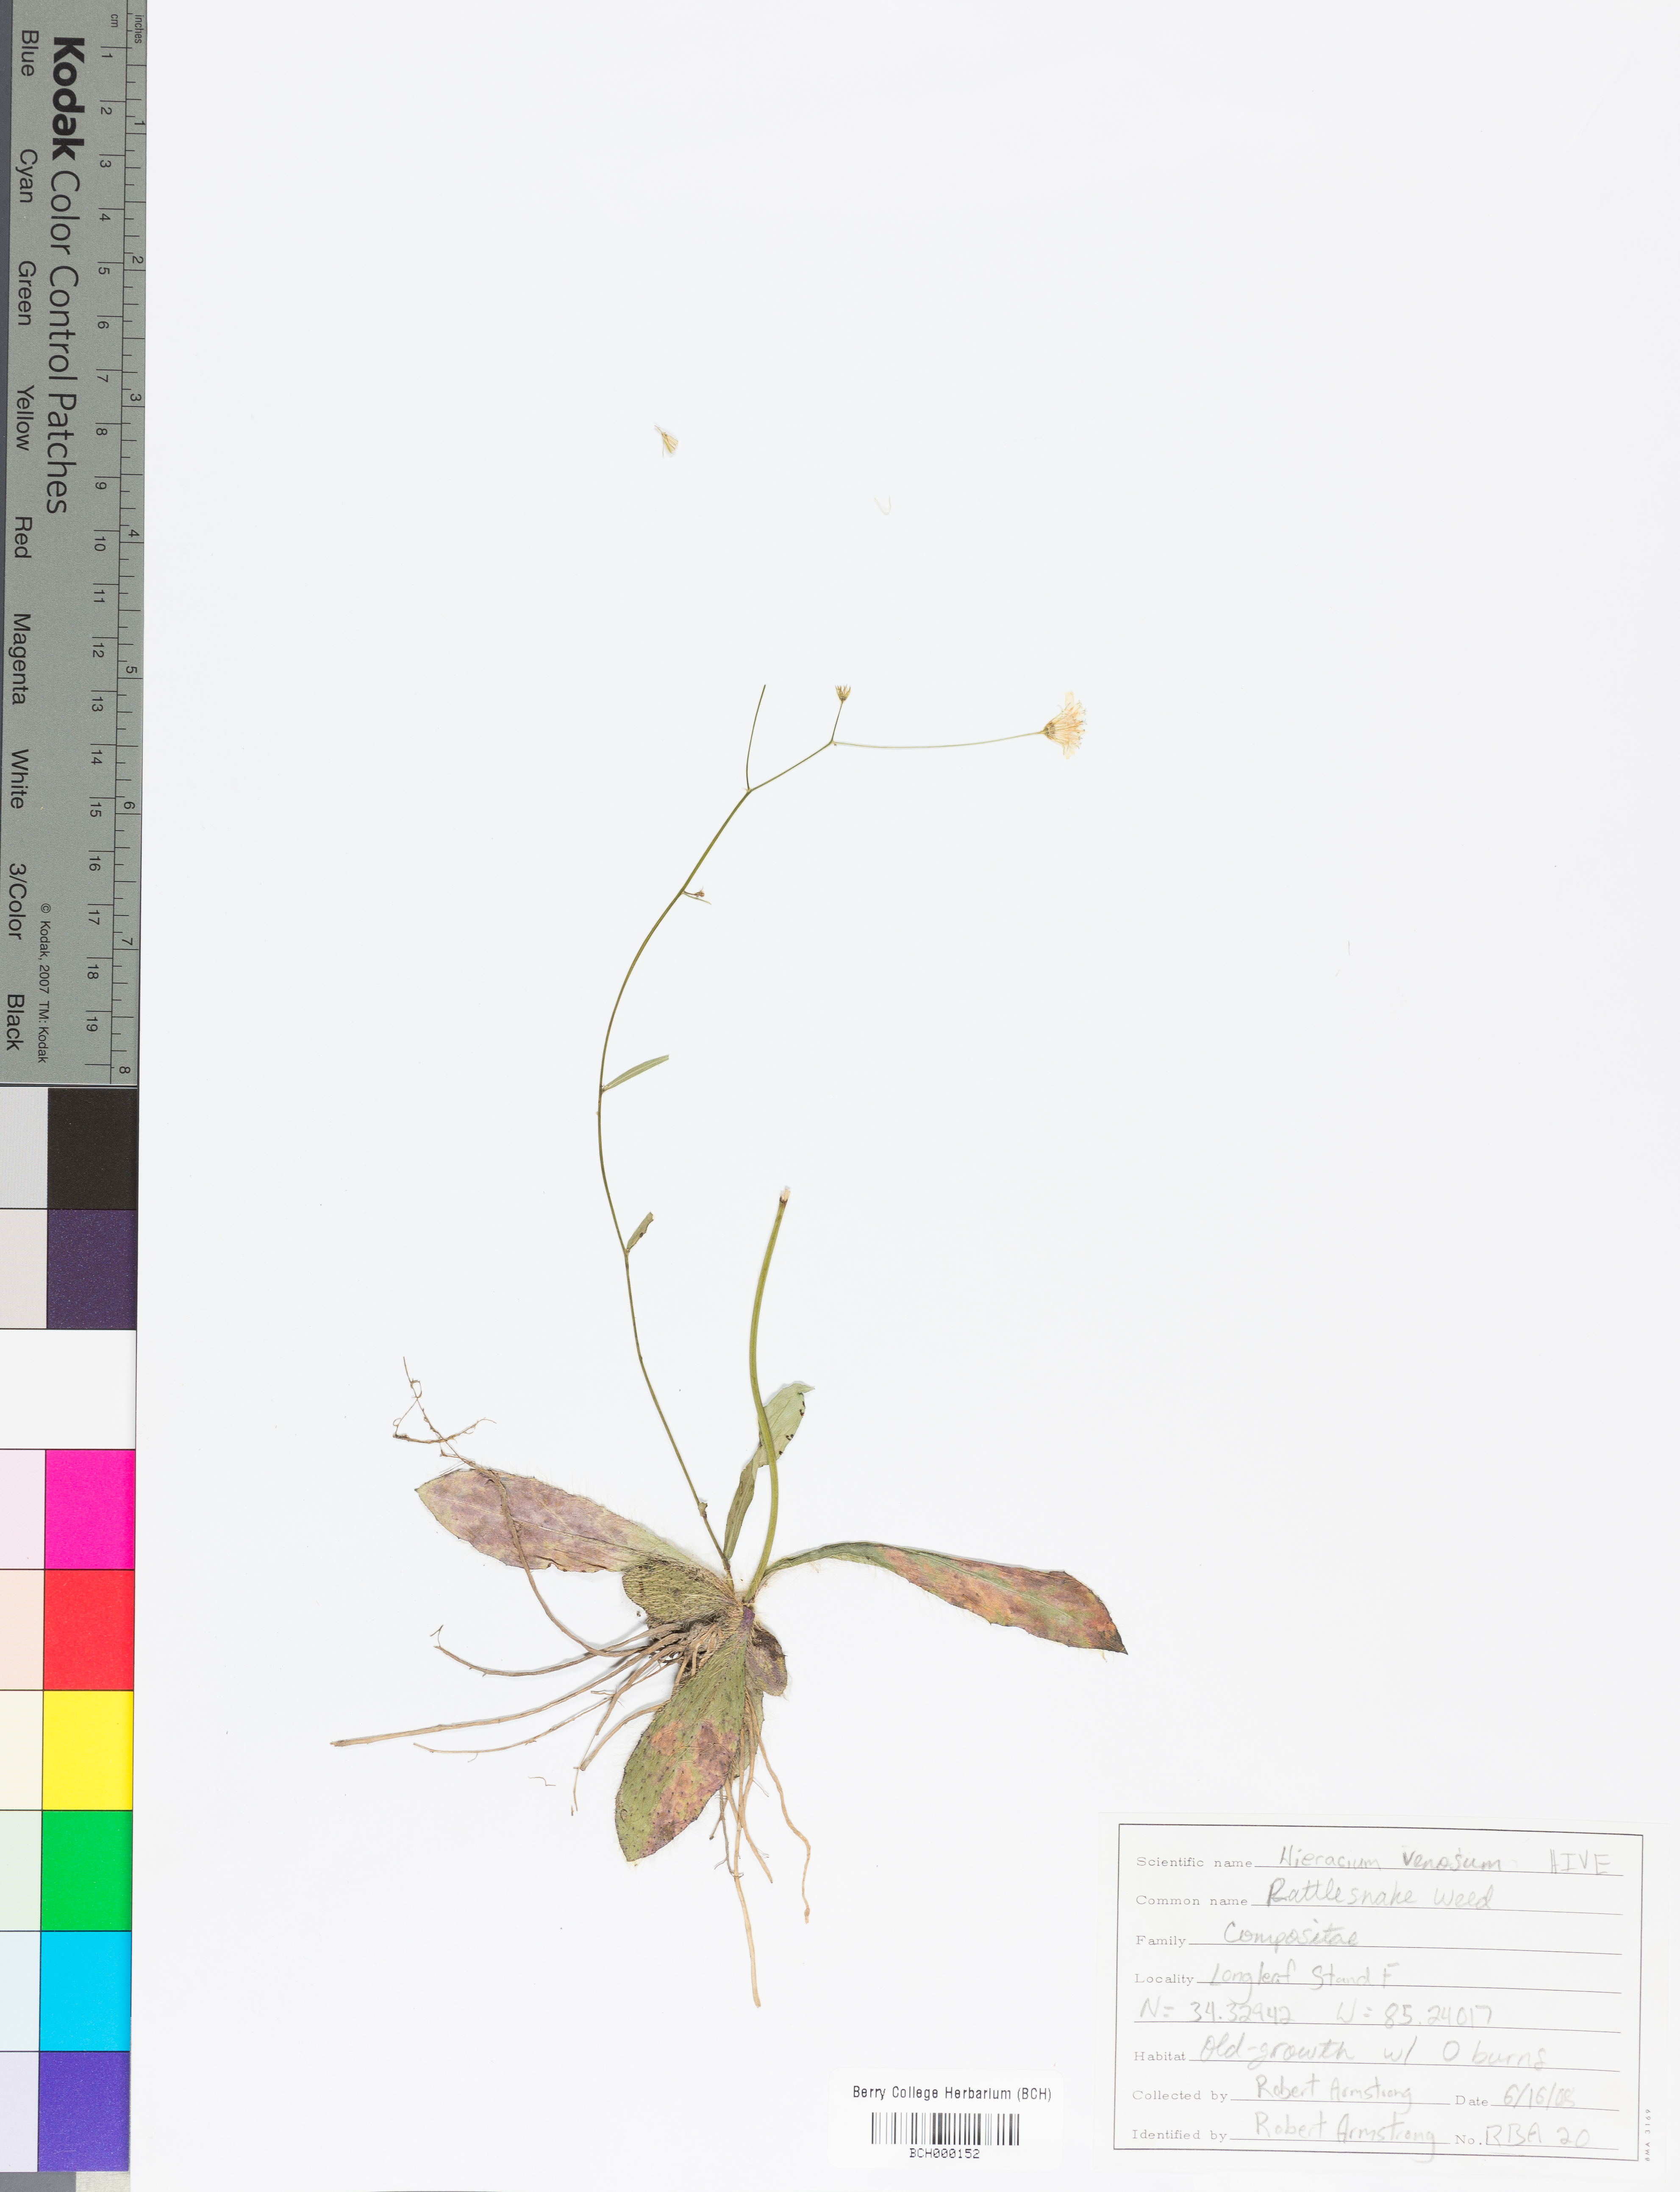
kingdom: Plantae
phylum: Tracheophyta
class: Magnoliopsida
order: Asterales
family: Asteraceae
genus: Hieracium
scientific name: Hieracium venosum
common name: Rattlesnake hawkweed
